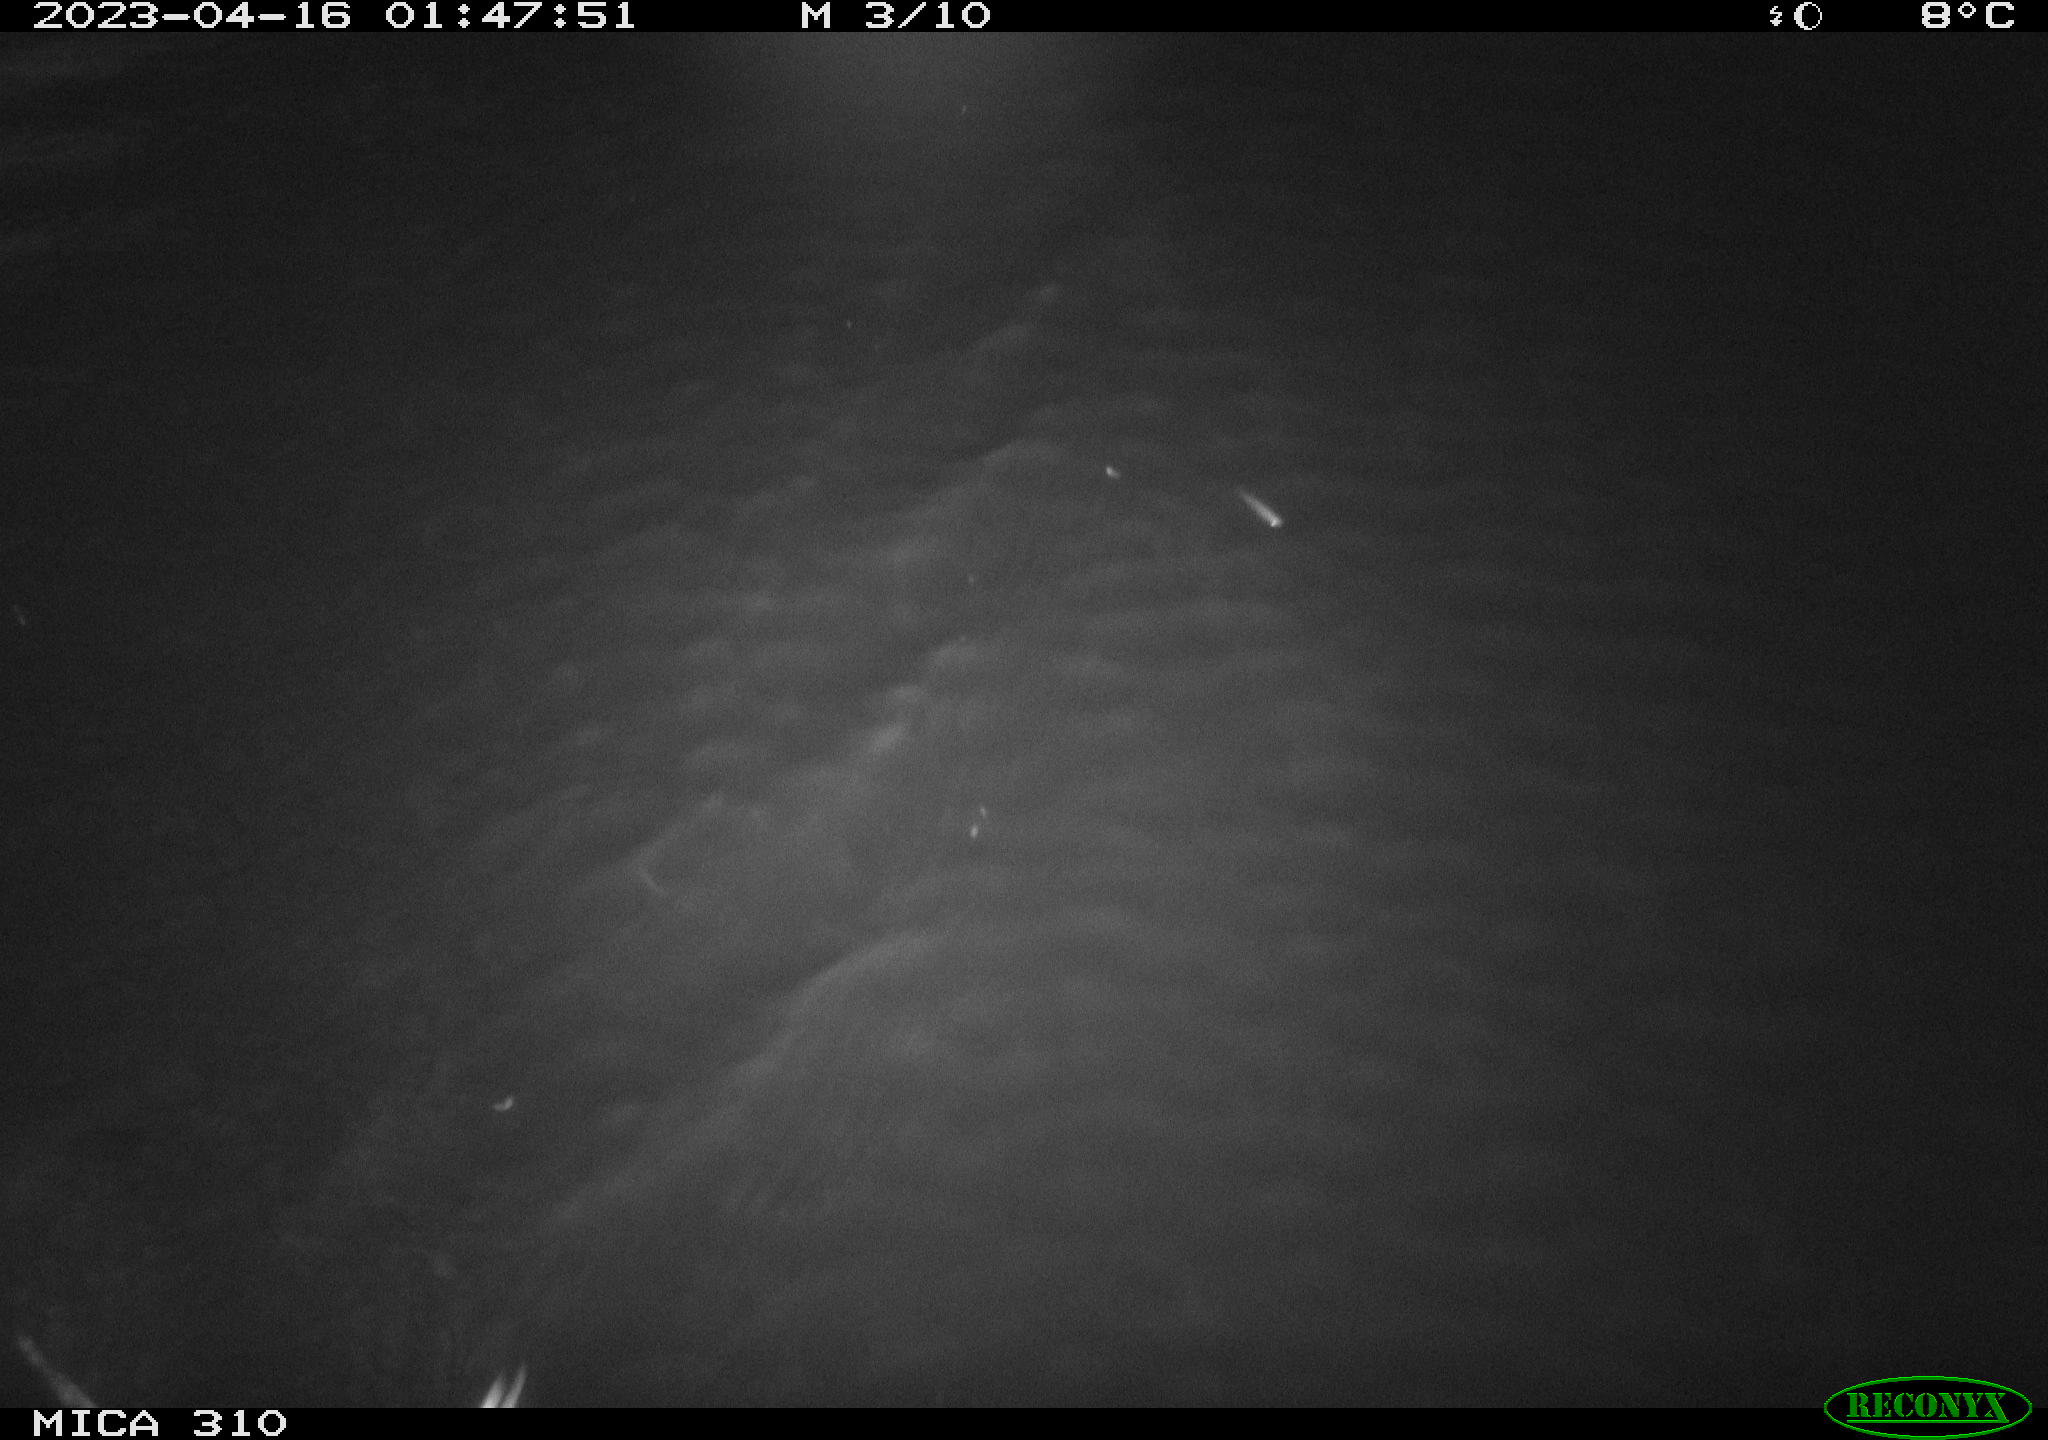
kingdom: Animalia
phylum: Chordata
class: Mammalia
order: Rodentia
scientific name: Rodentia
